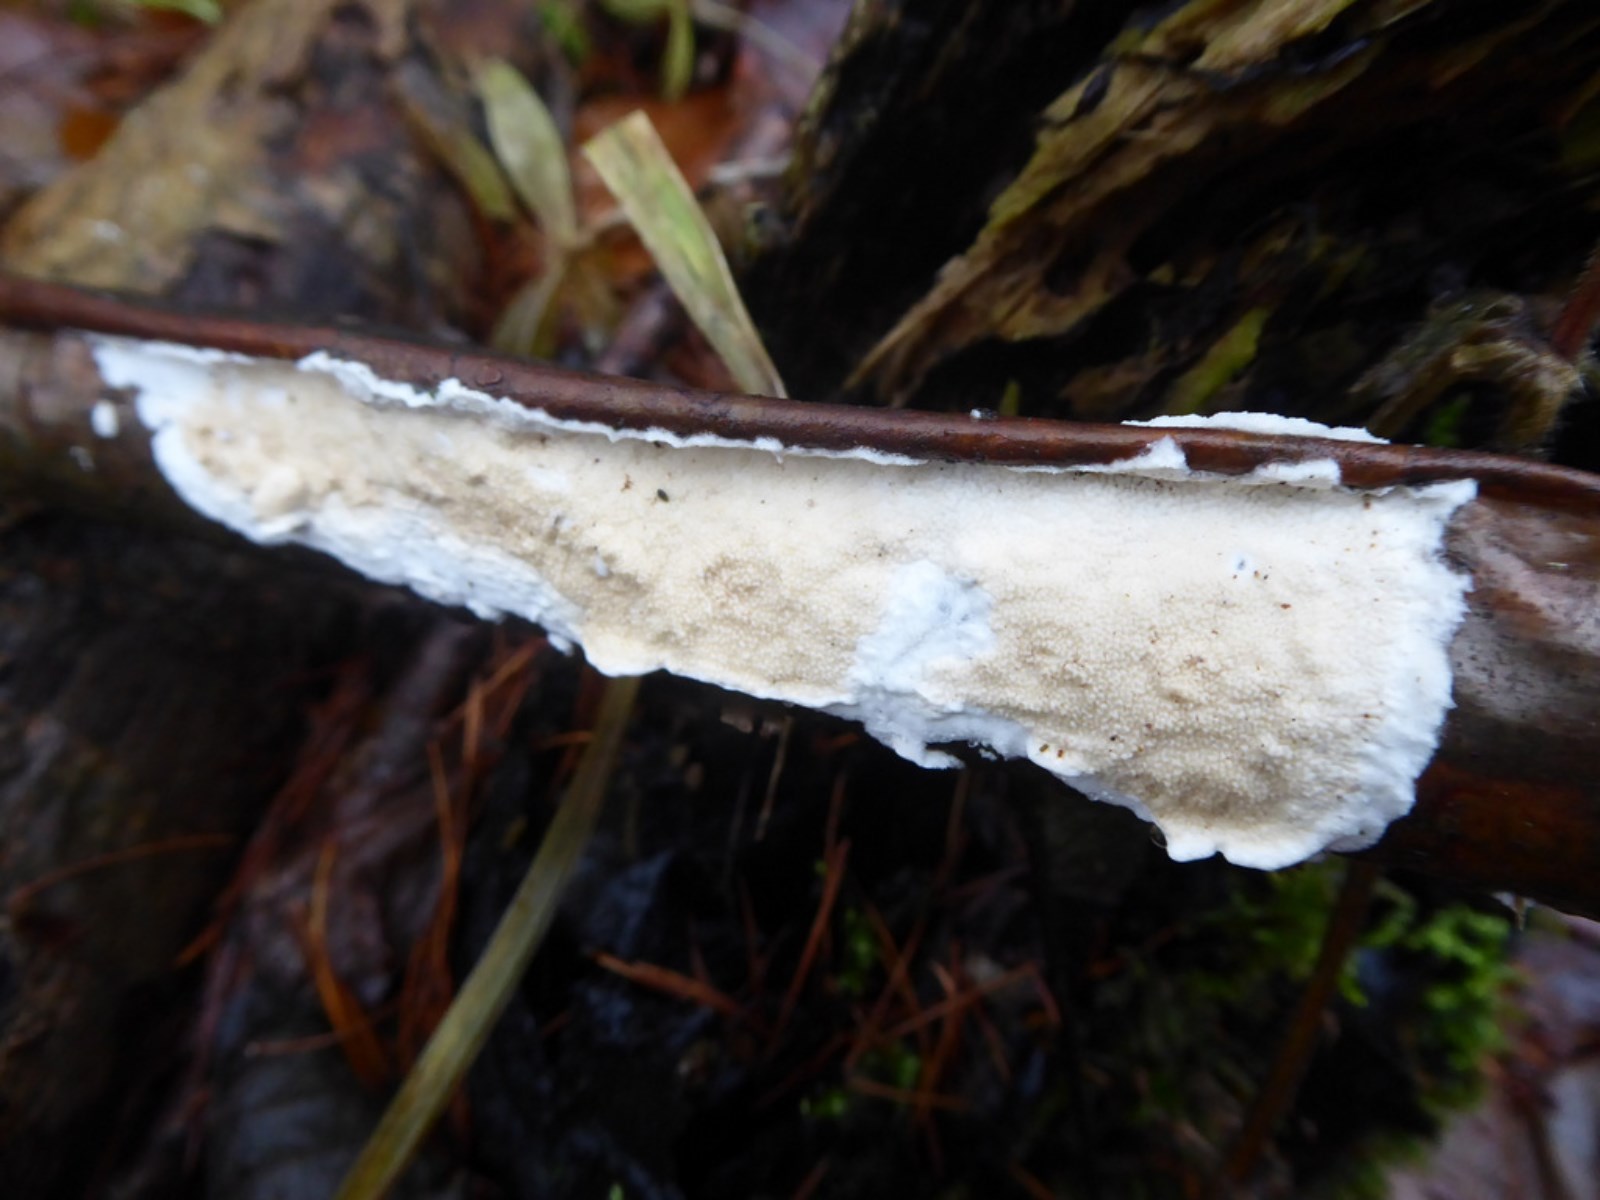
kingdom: Fungi
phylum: Basidiomycota
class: Agaricomycetes
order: Polyporales
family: Irpicaceae
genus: Byssomerulius
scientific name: Byssomerulius corium
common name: læder-åresvamp
